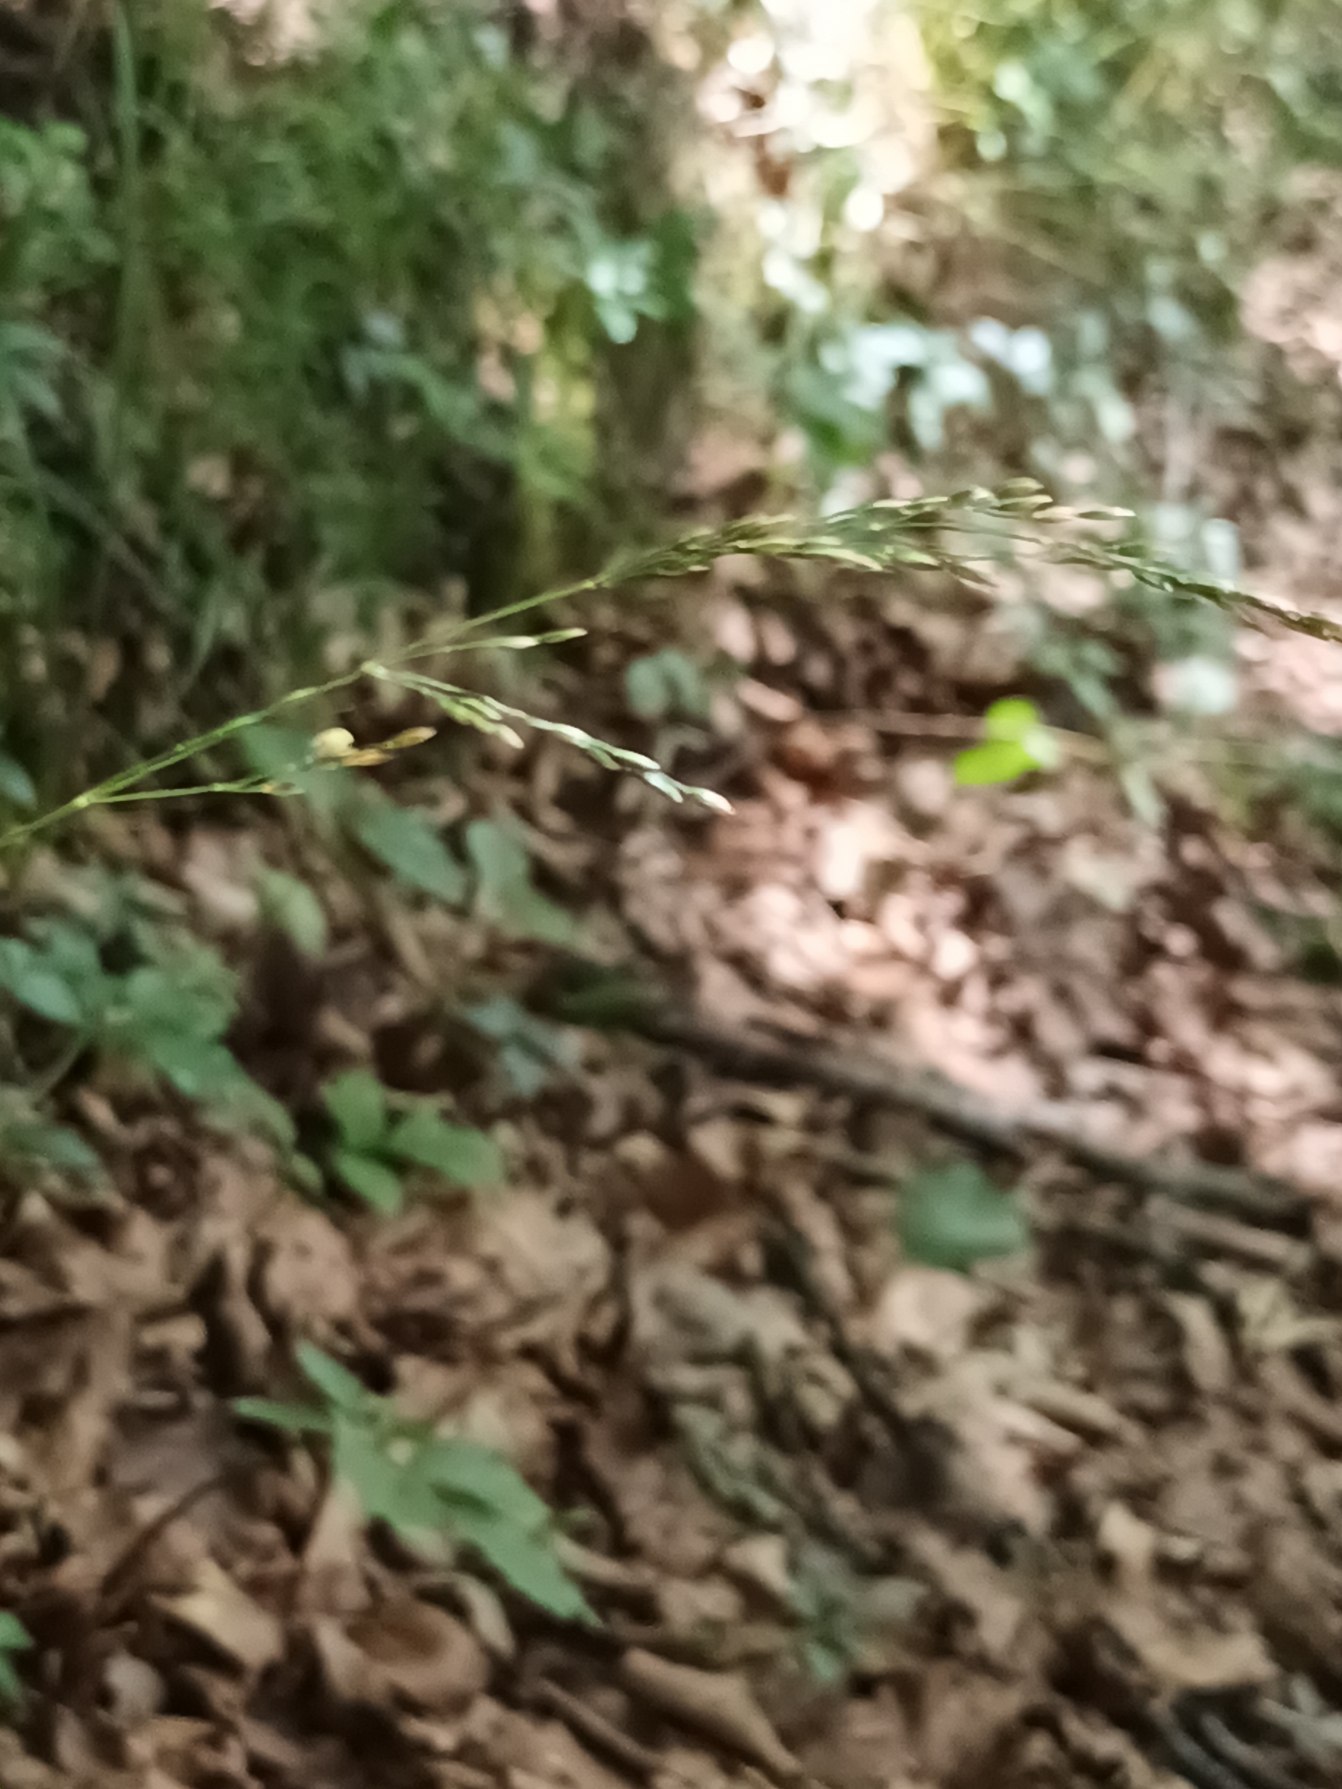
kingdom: Plantae
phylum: Tracheophyta
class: Liliopsida
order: Poales
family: Poaceae
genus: Poa
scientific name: Poa nemoralis
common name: Lund-rapgræs
